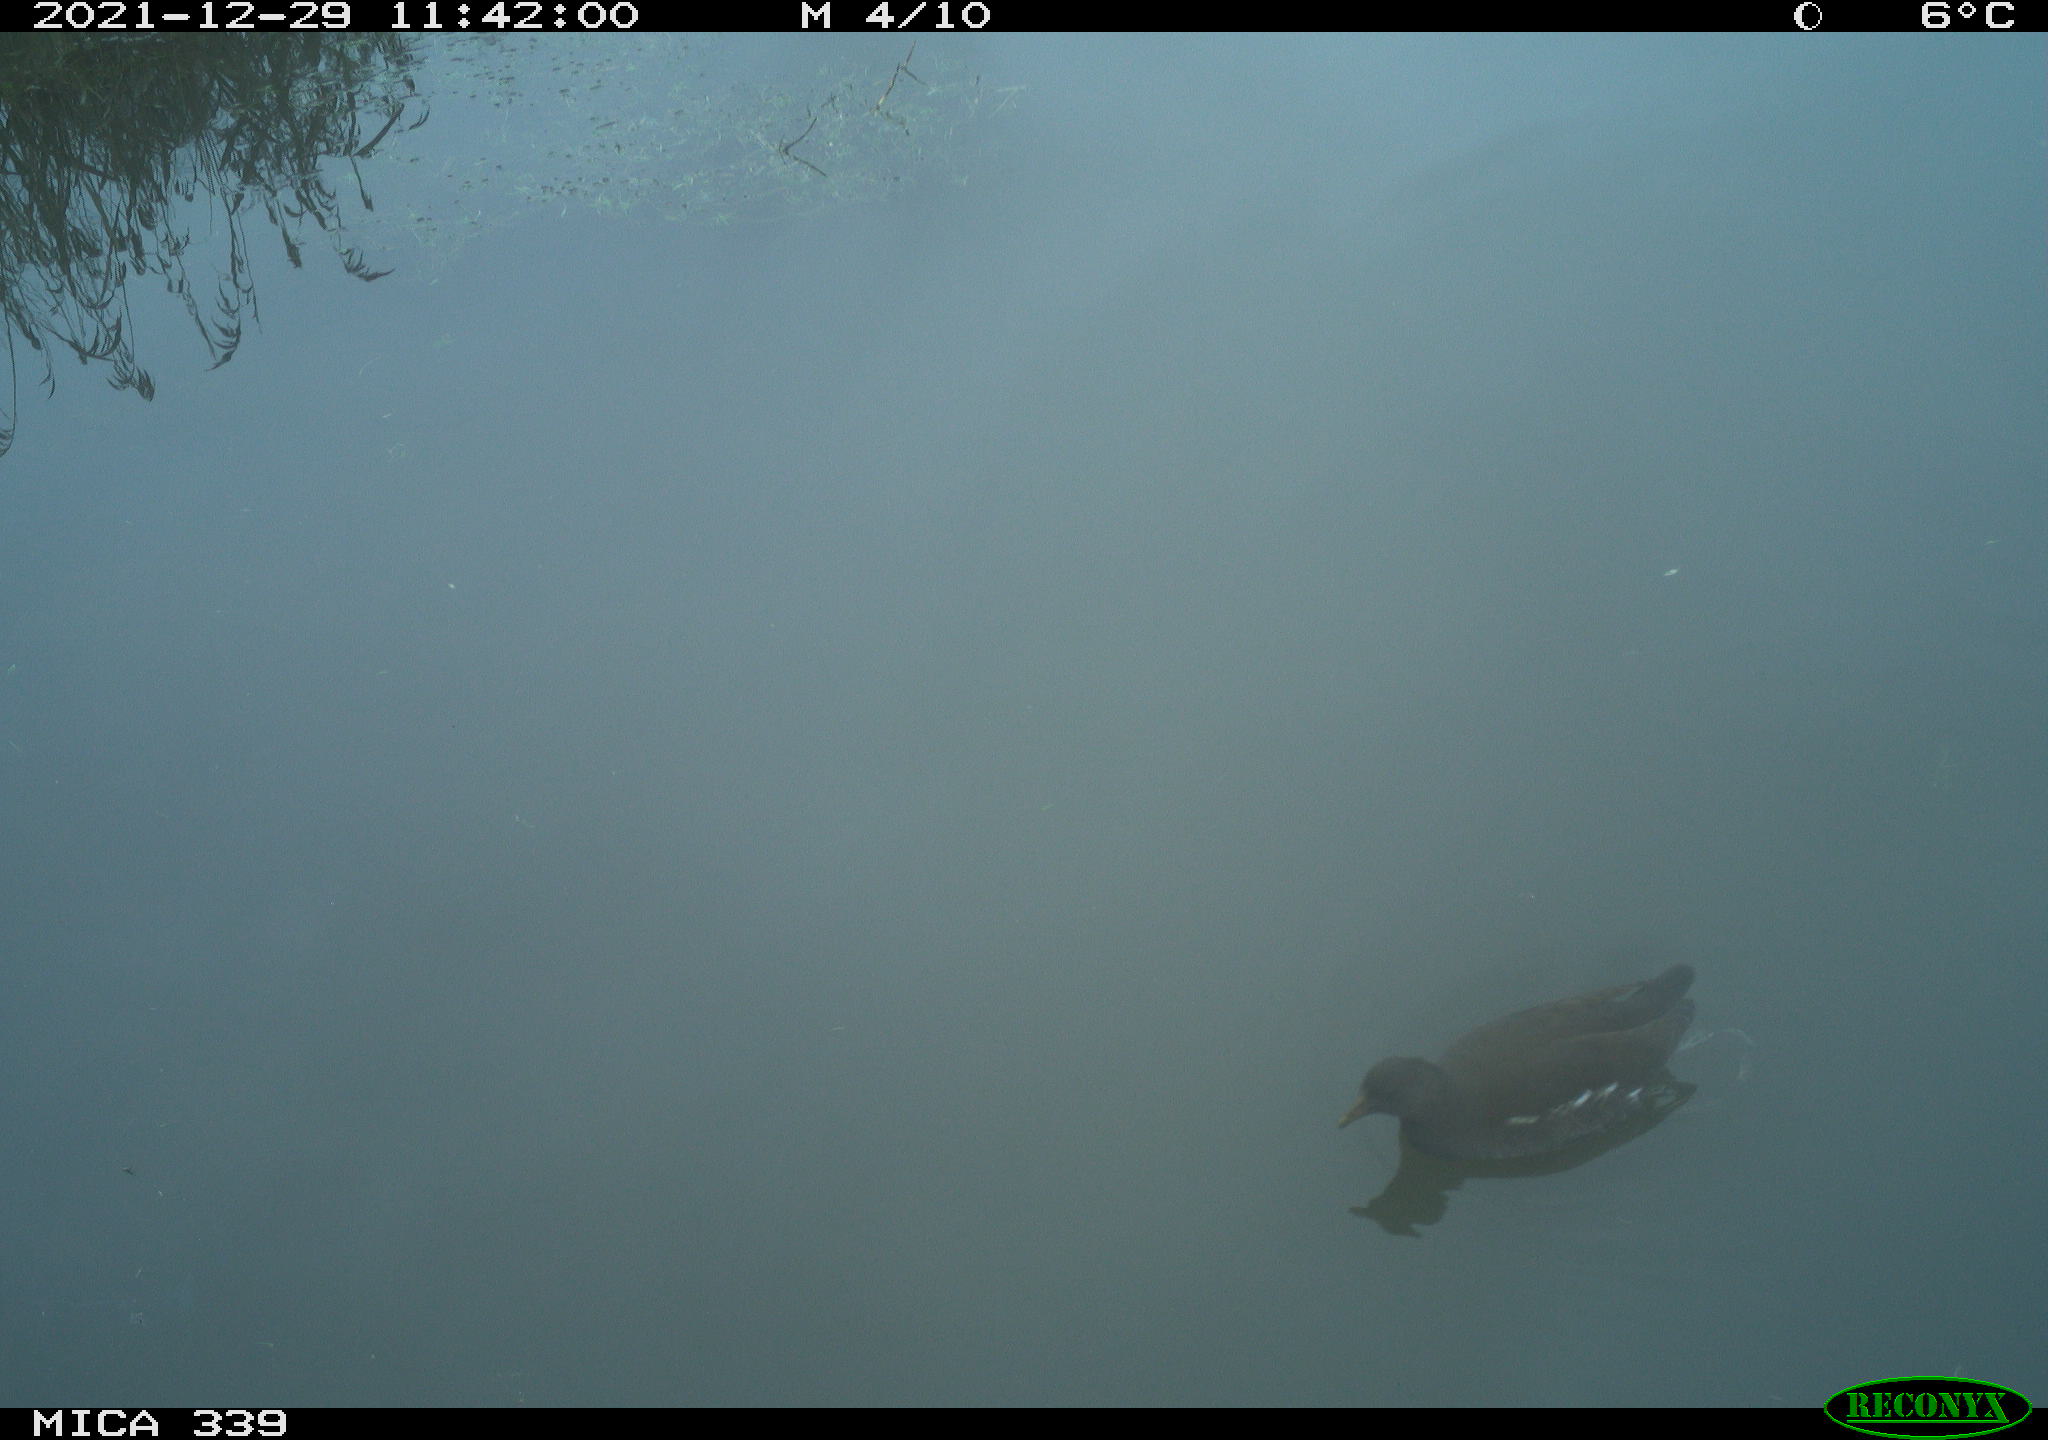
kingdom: Animalia
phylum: Chordata
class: Aves
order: Gruiformes
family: Rallidae
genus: Gallinula
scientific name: Gallinula chloropus
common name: Common moorhen
